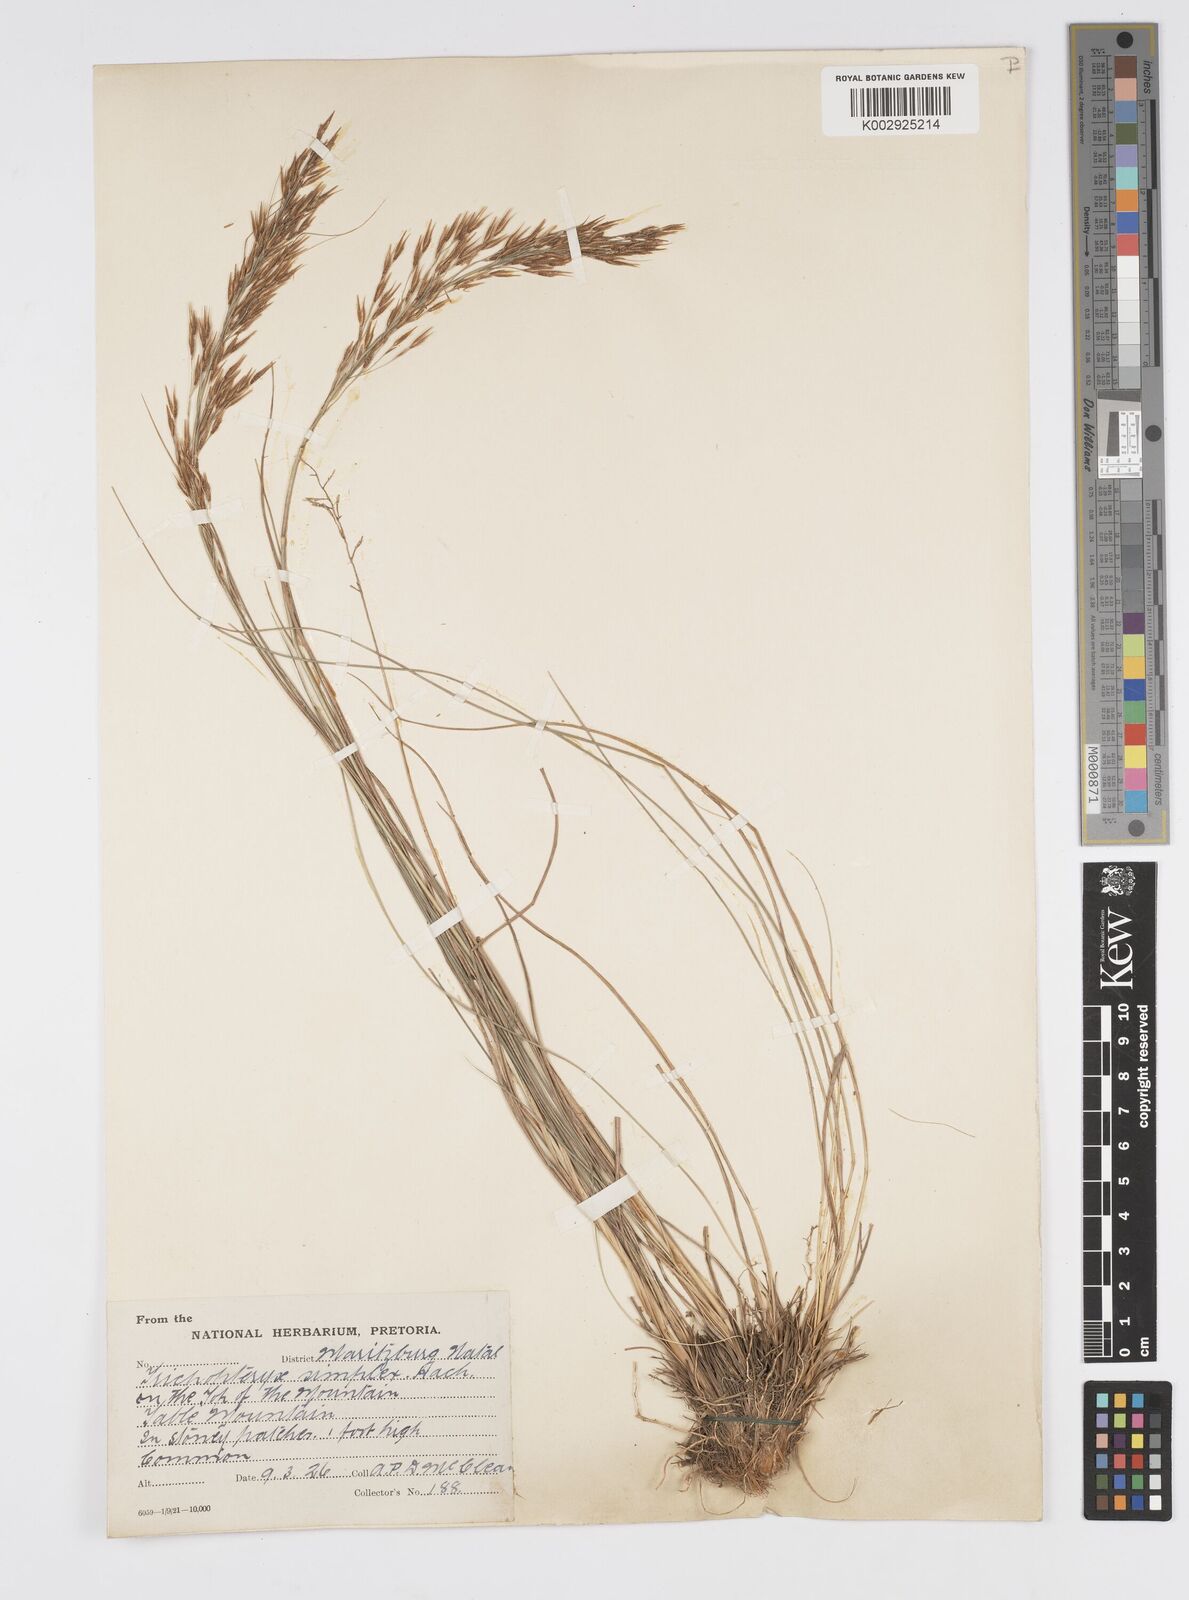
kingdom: Plantae
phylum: Tracheophyta
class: Liliopsida
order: Poales
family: Poaceae
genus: Loudetia
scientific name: Loudetia simplex
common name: Common russet grass
